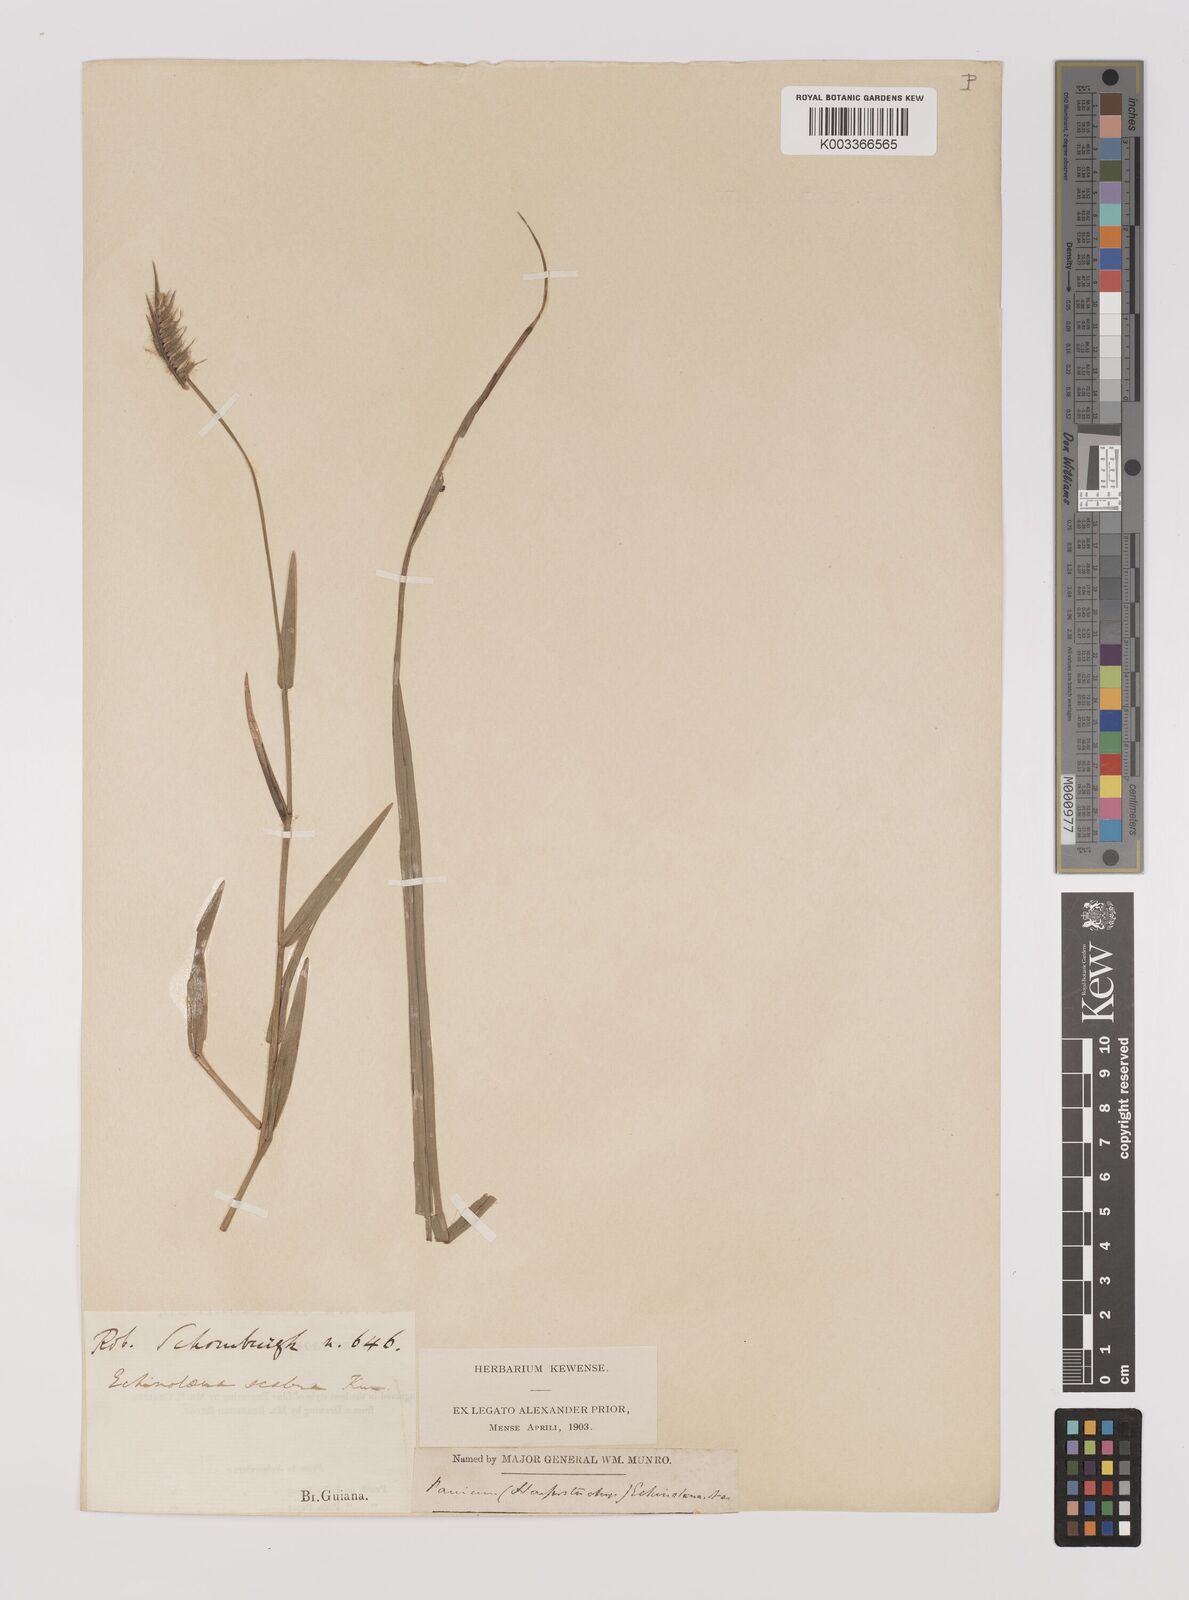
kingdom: Plantae
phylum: Tracheophyta
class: Liliopsida
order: Poales
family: Poaceae
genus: Echinolaena
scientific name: Echinolaena inflexa
